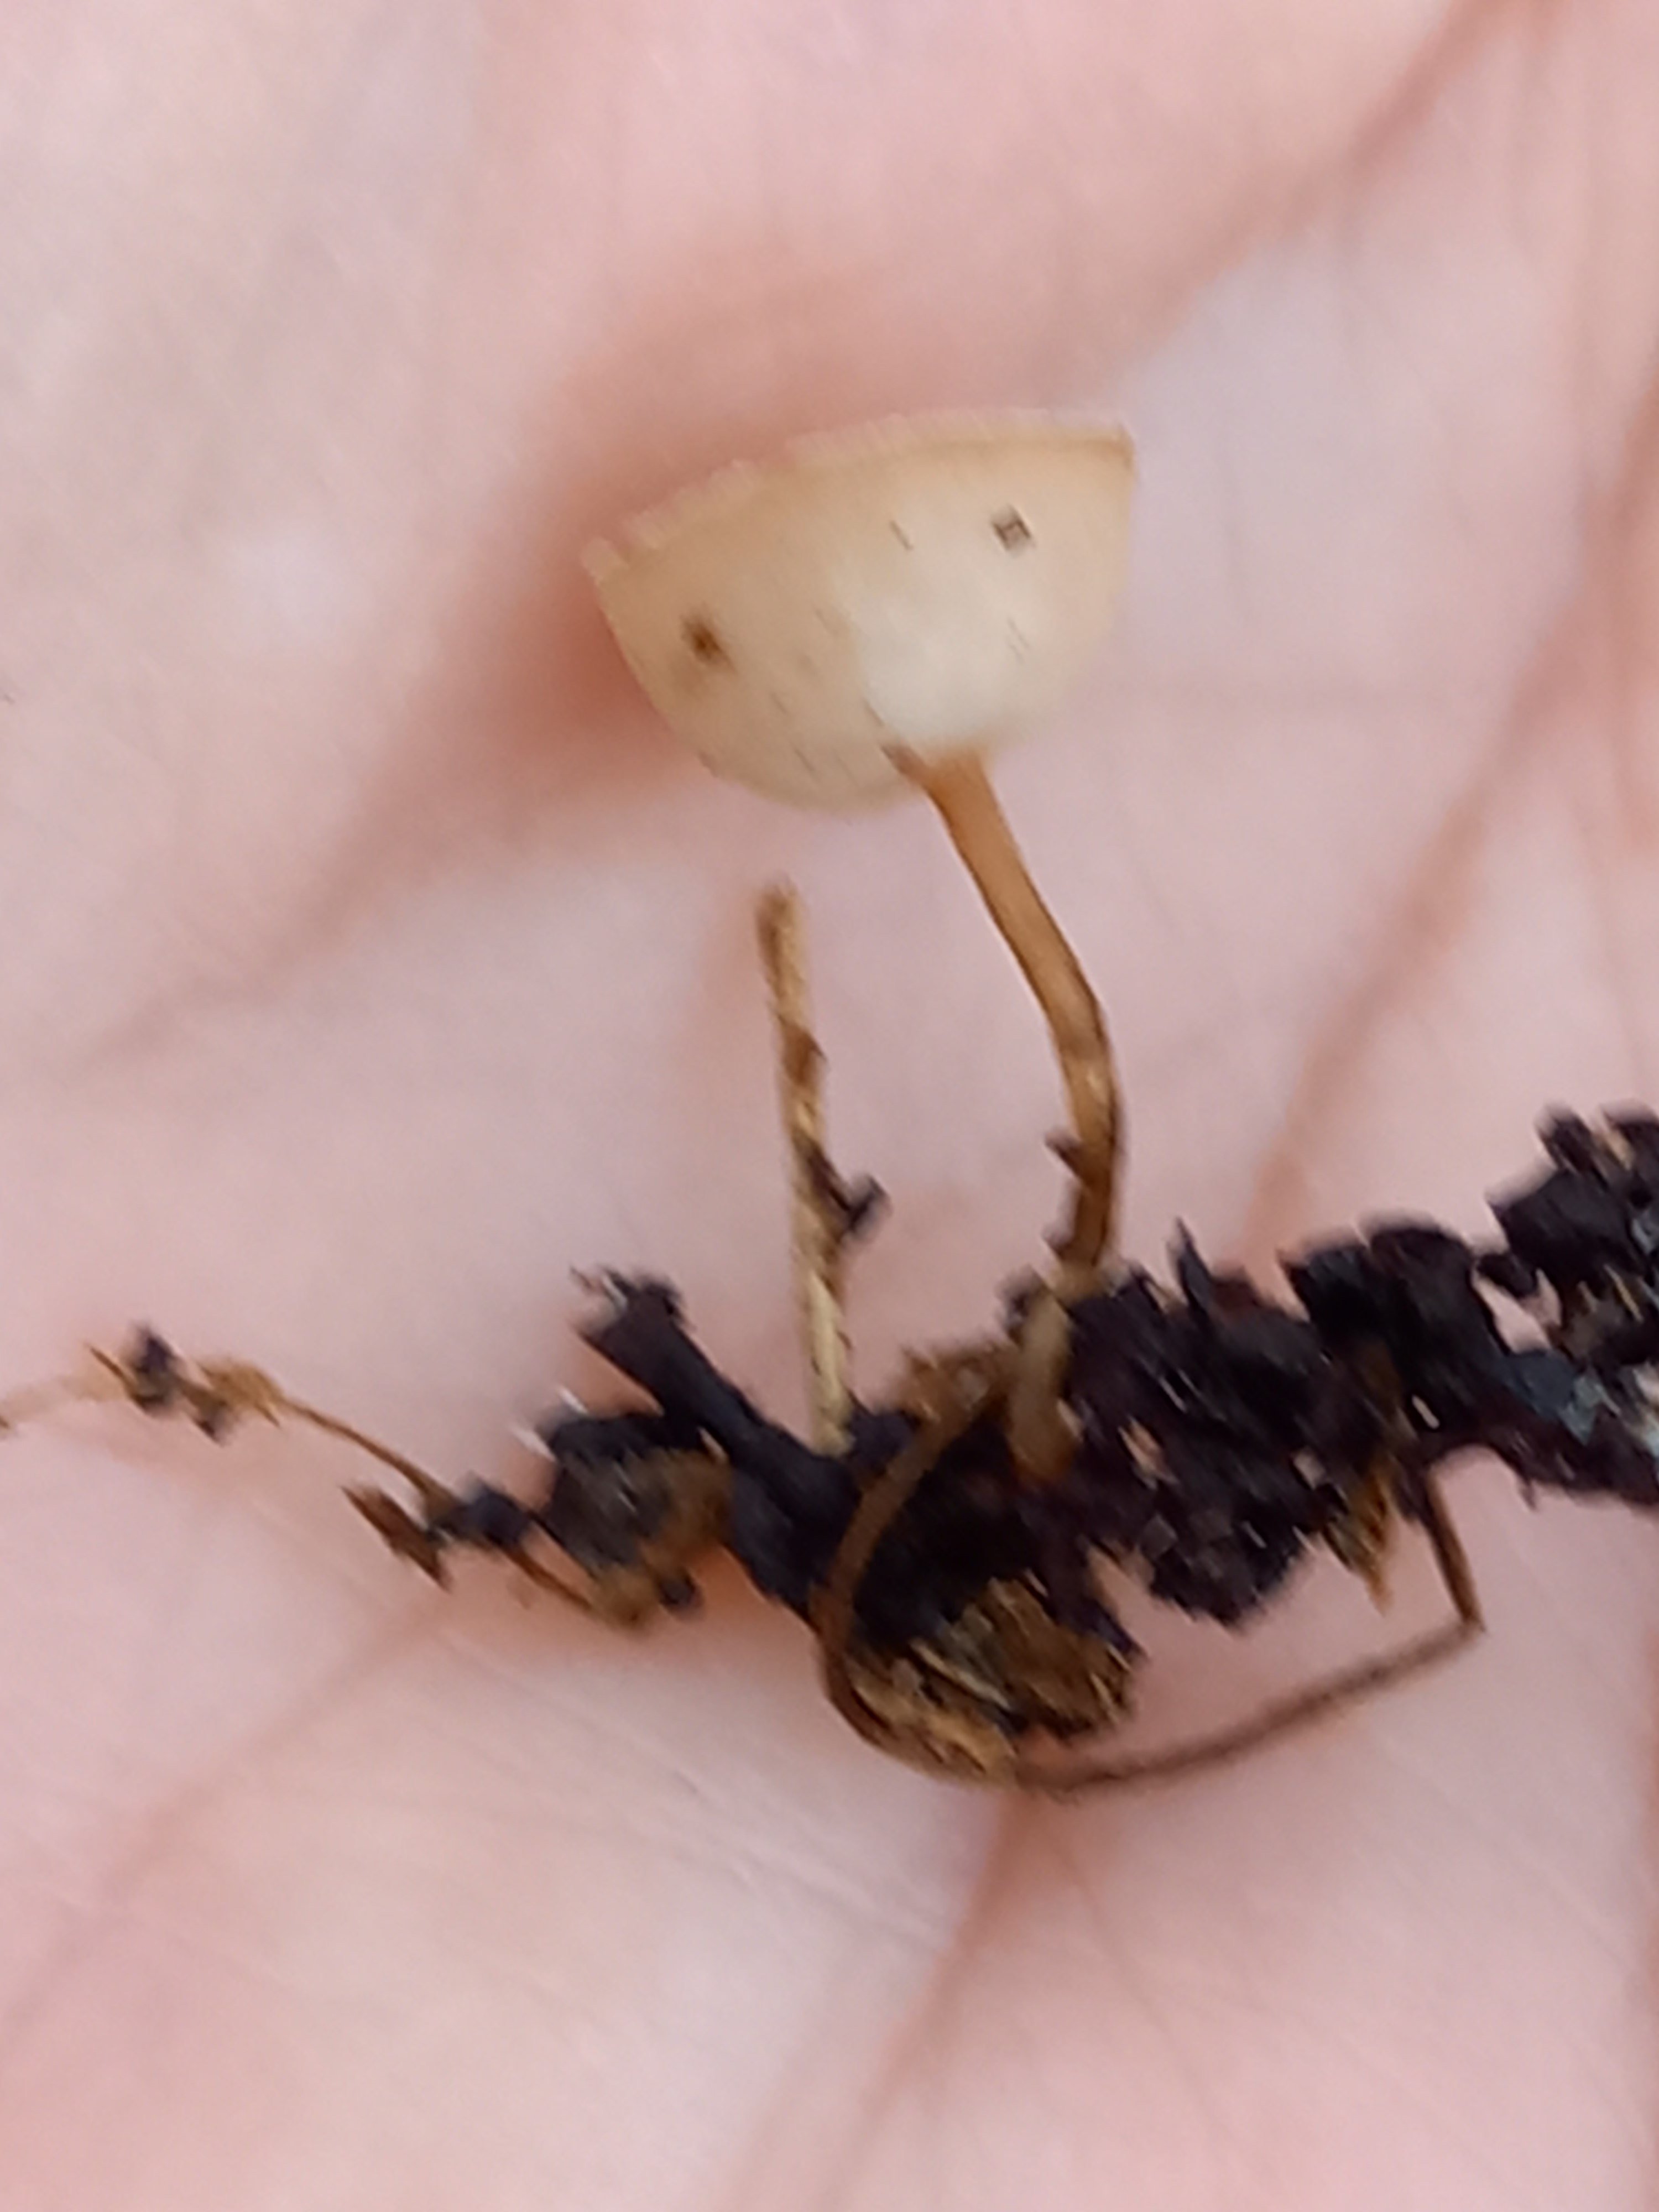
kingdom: Fungi
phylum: Ascomycota
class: Leotiomycetes
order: Helotiales
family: Sclerotiniaceae
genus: Ciboria
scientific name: Ciboria amentacea
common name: ellerakle-knoldskive
